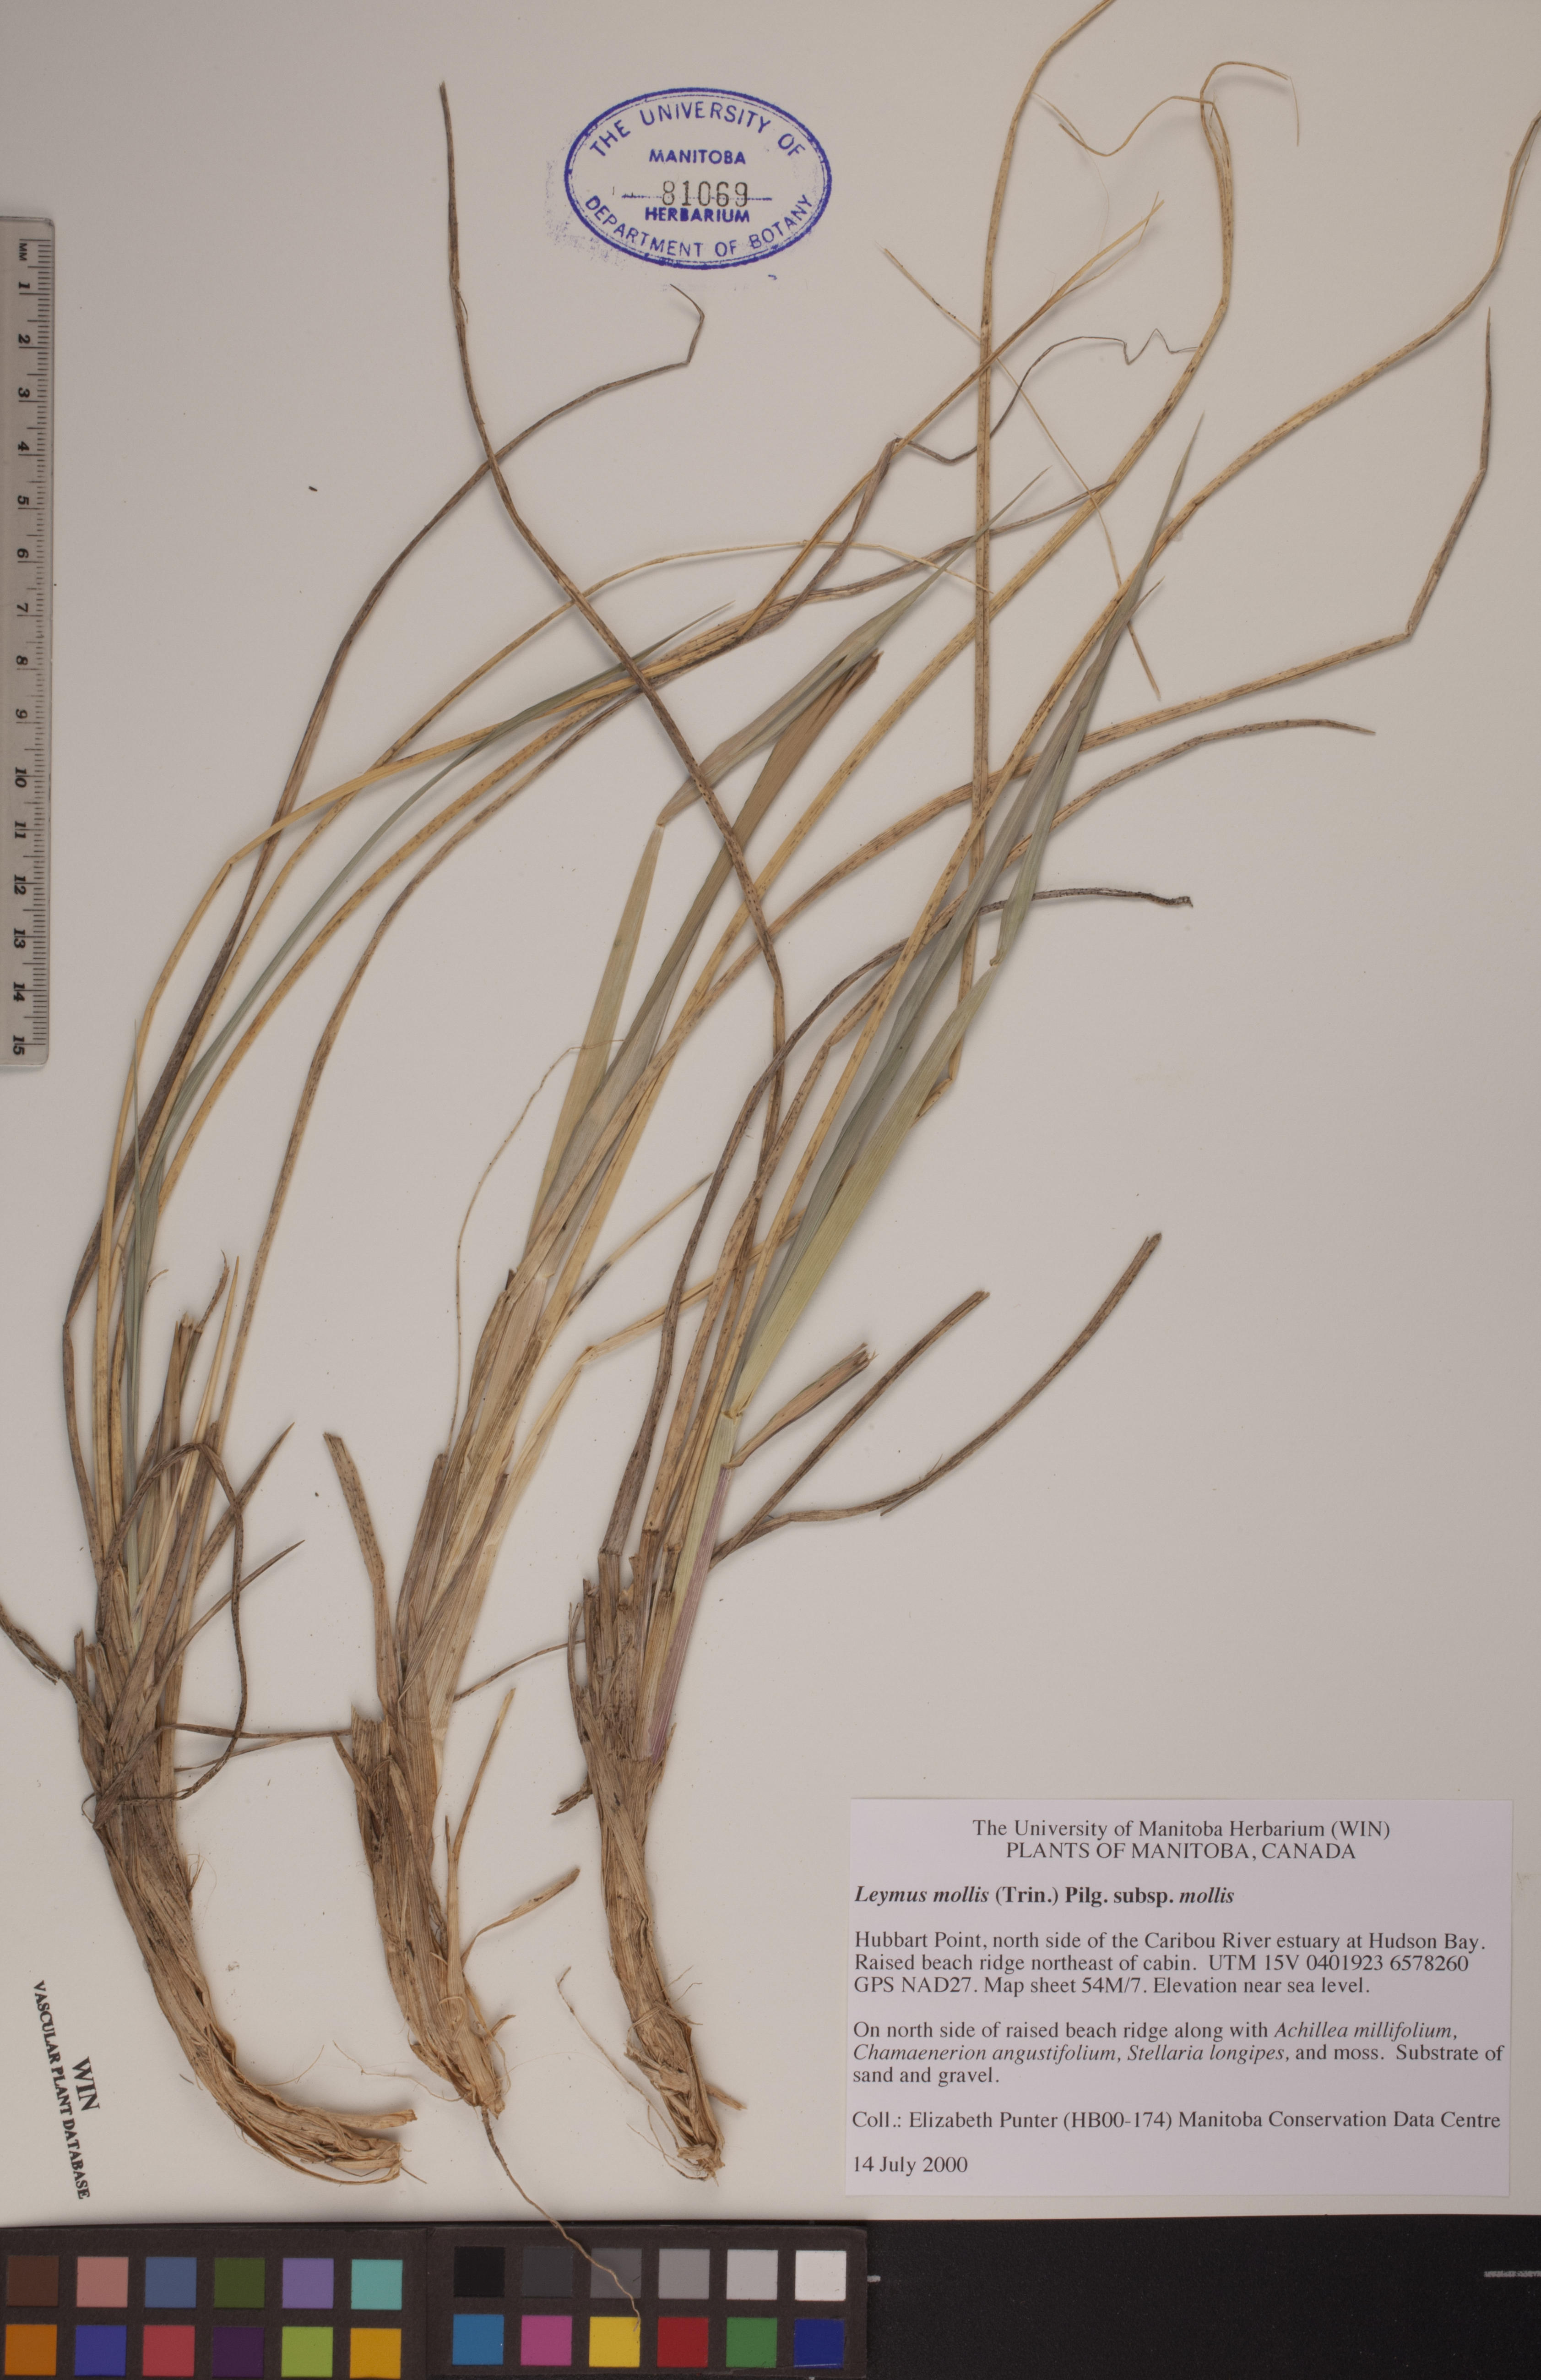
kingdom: Plantae
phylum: Tracheophyta
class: Liliopsida
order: Poales
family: Poaceae
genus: Leymus
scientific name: Leymus mollis
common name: American dune grass
